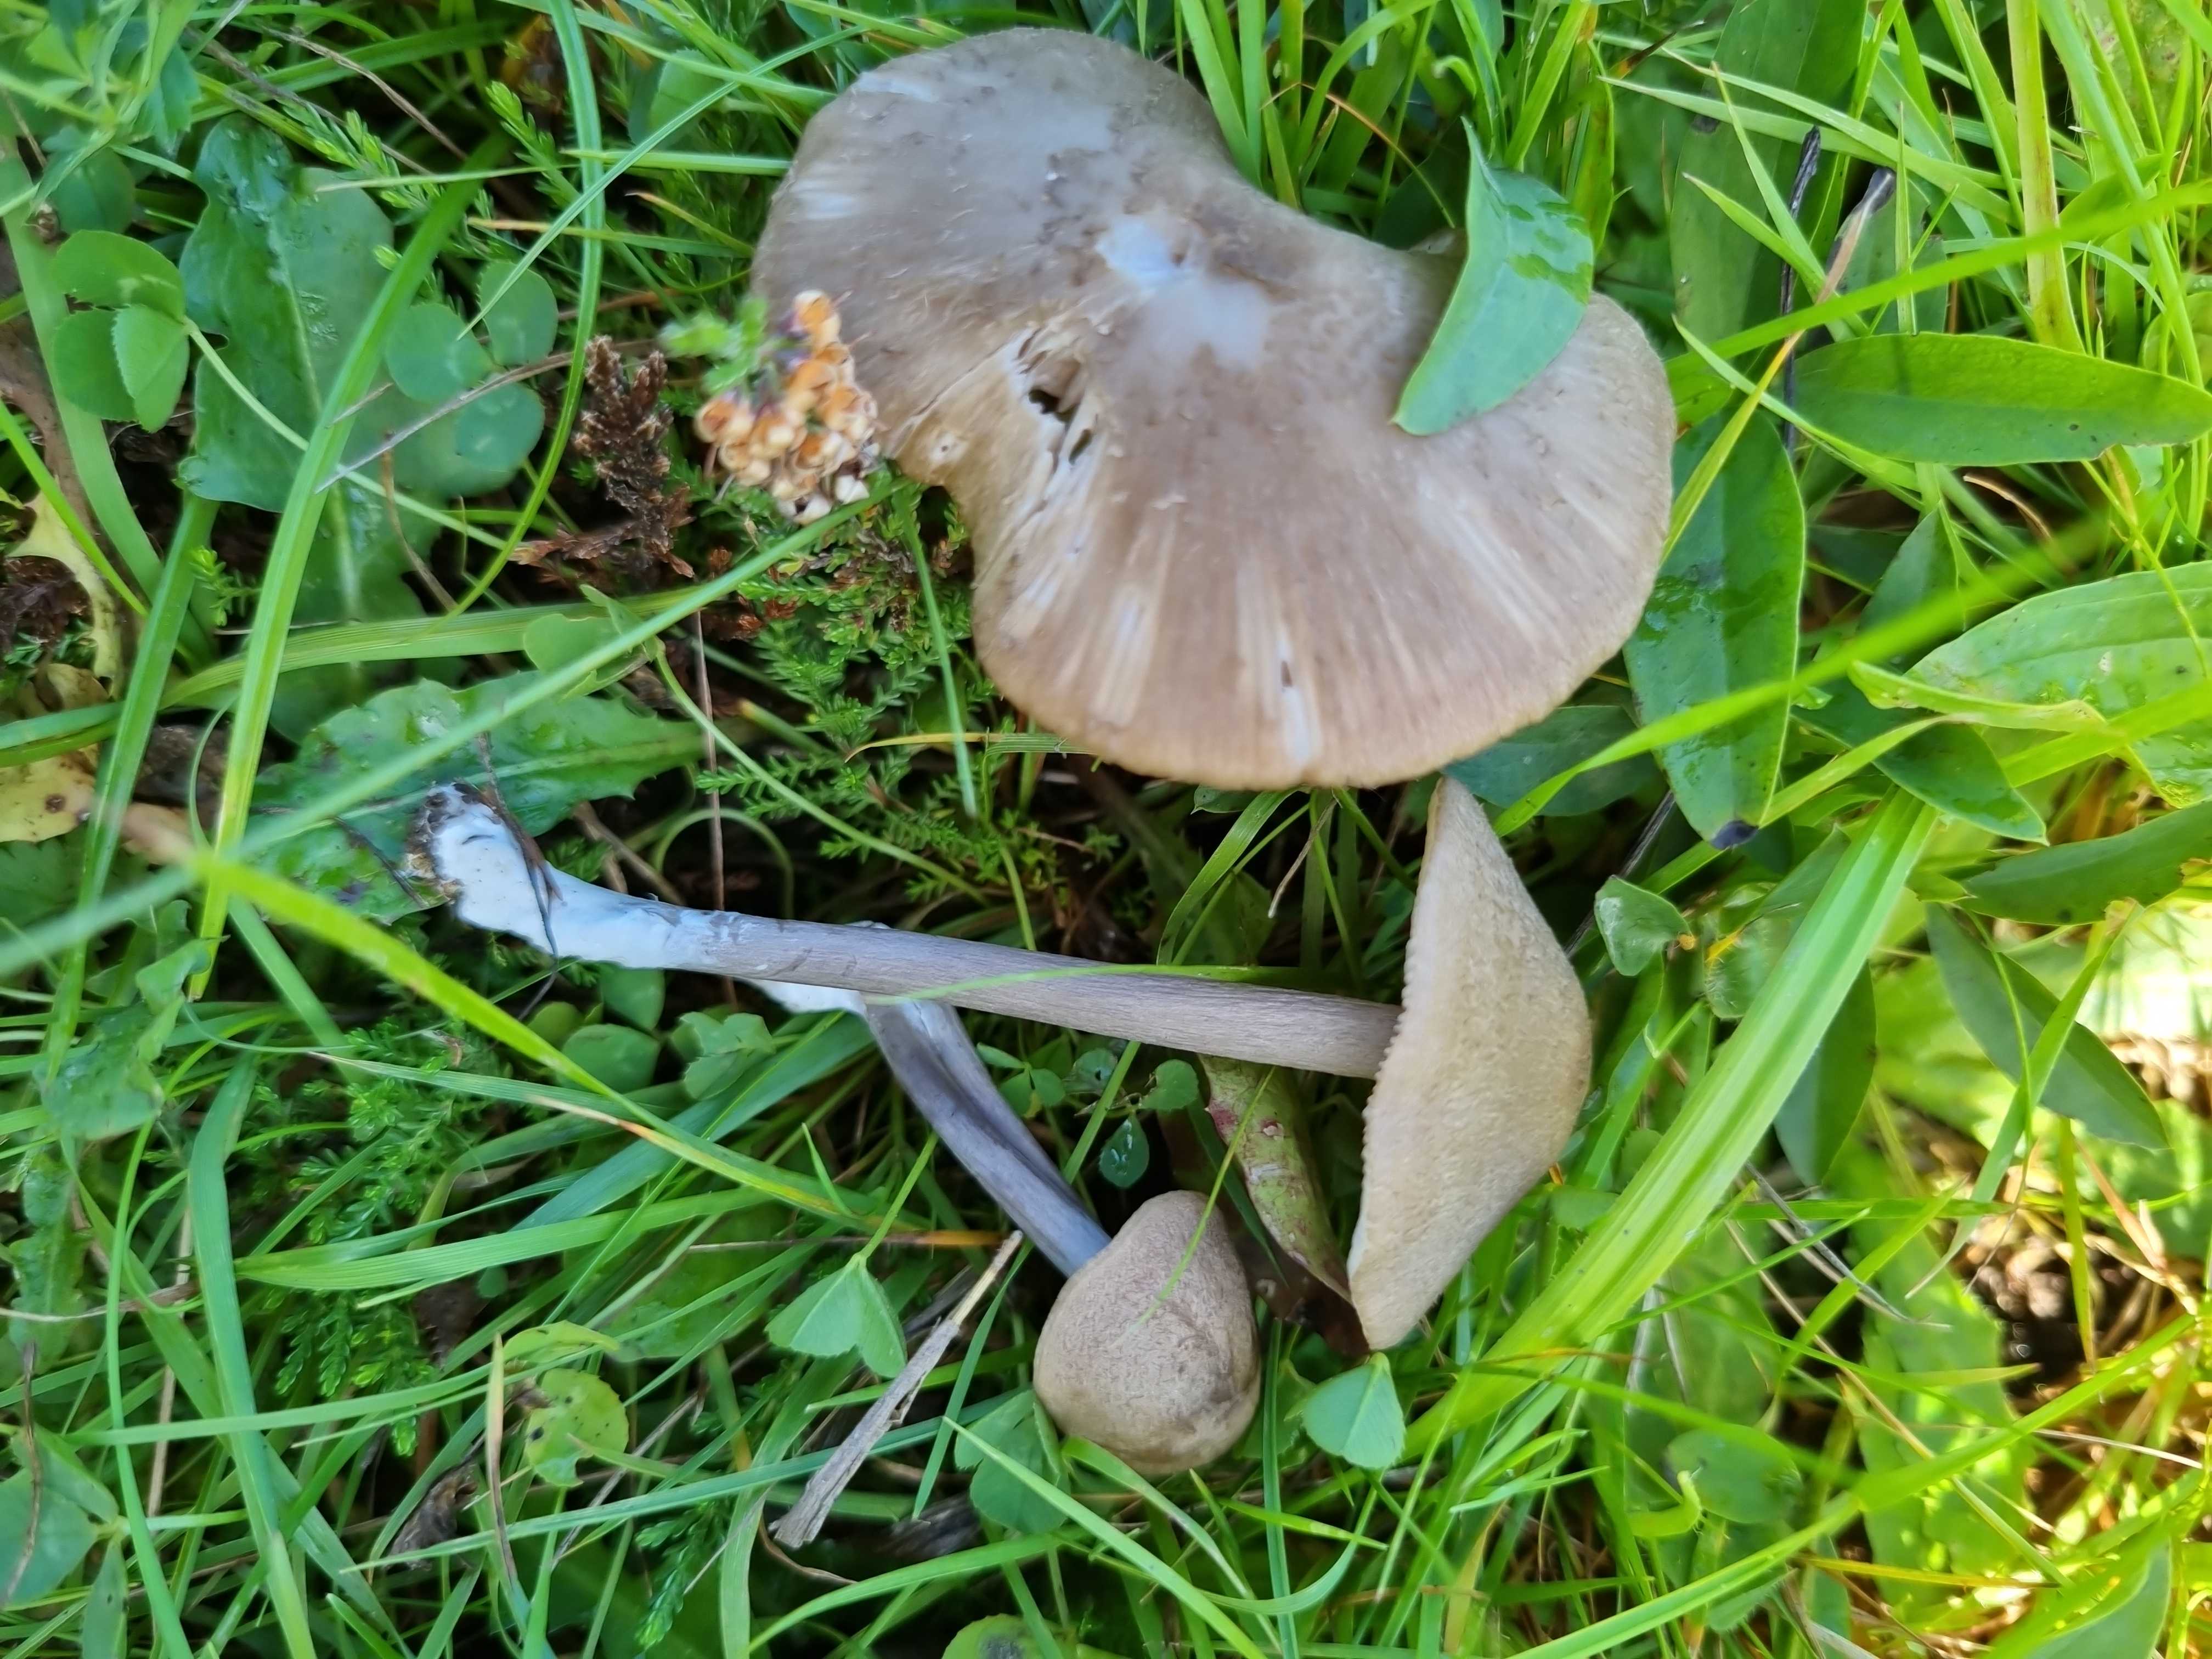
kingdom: Fungi
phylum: Basidiomycota
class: Agaricomycetes
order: Agaricales
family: Entolomataceae
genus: Entoloma
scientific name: Entoloma griseocyaneum
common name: gråblå rødblad
